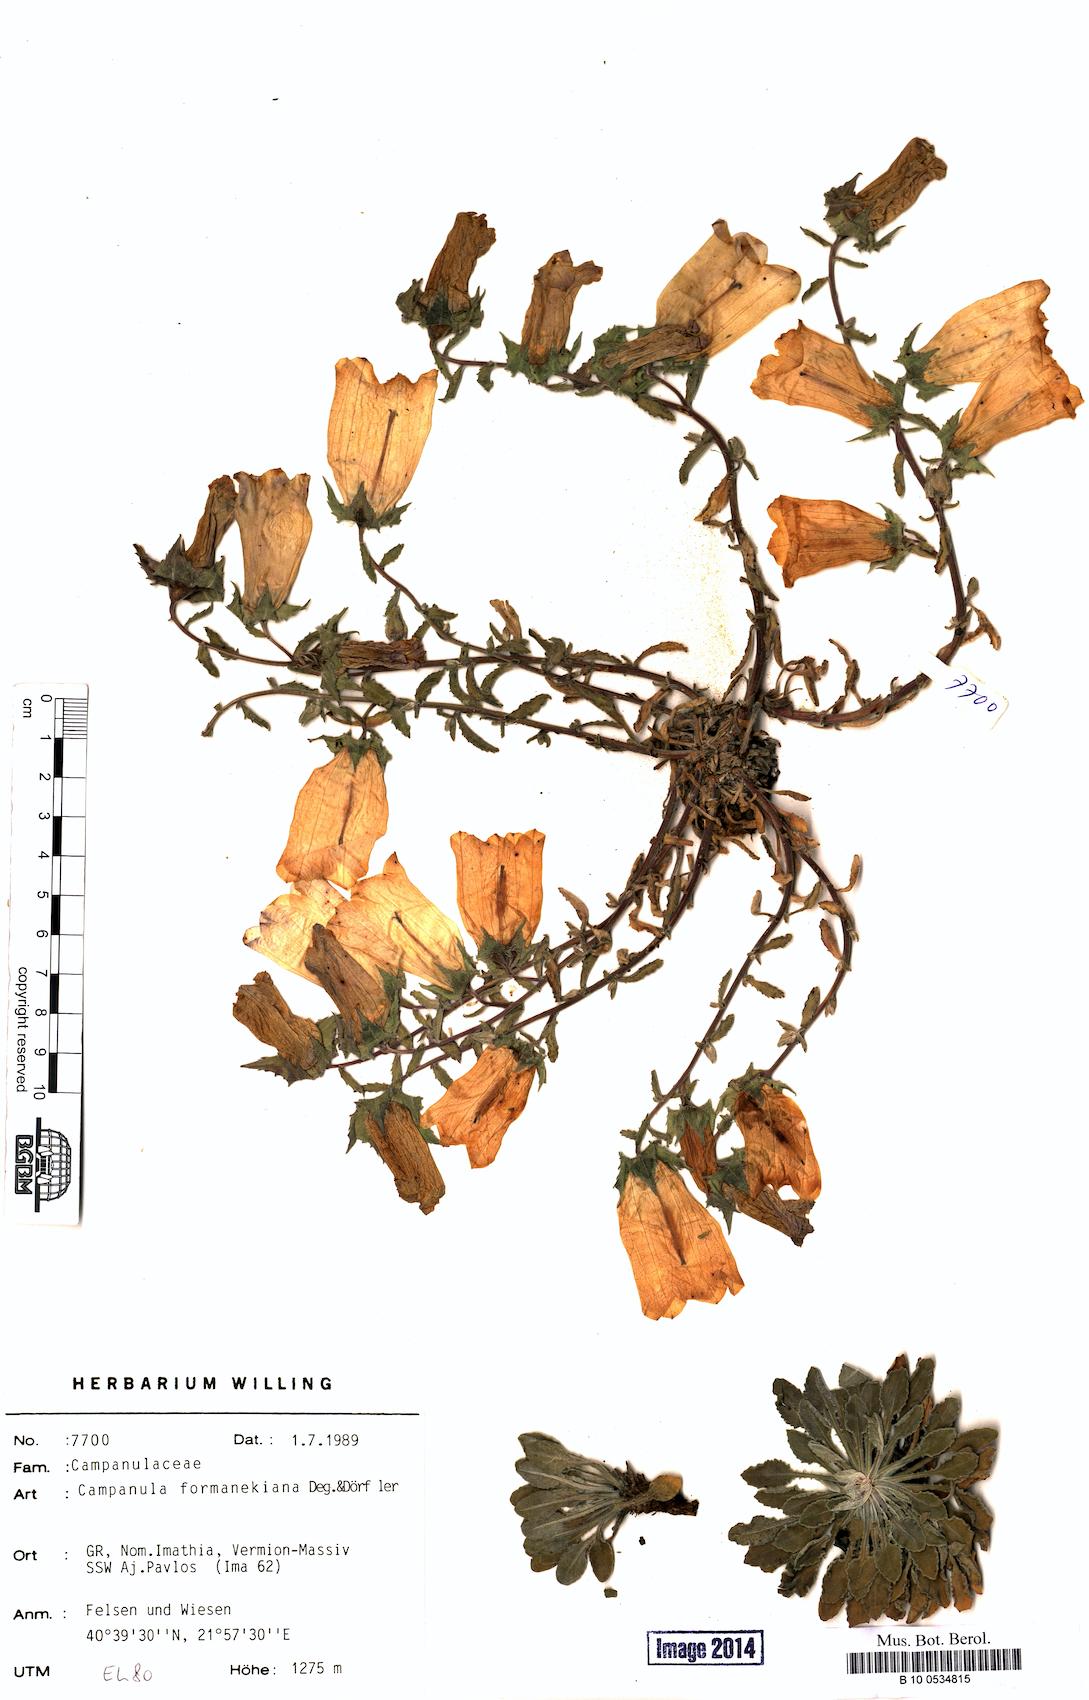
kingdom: Plantae
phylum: Tracheophyta
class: Magnoliopsida
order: Asterales
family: Campanulaceae
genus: Campanula
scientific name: Campanula formanekiana
